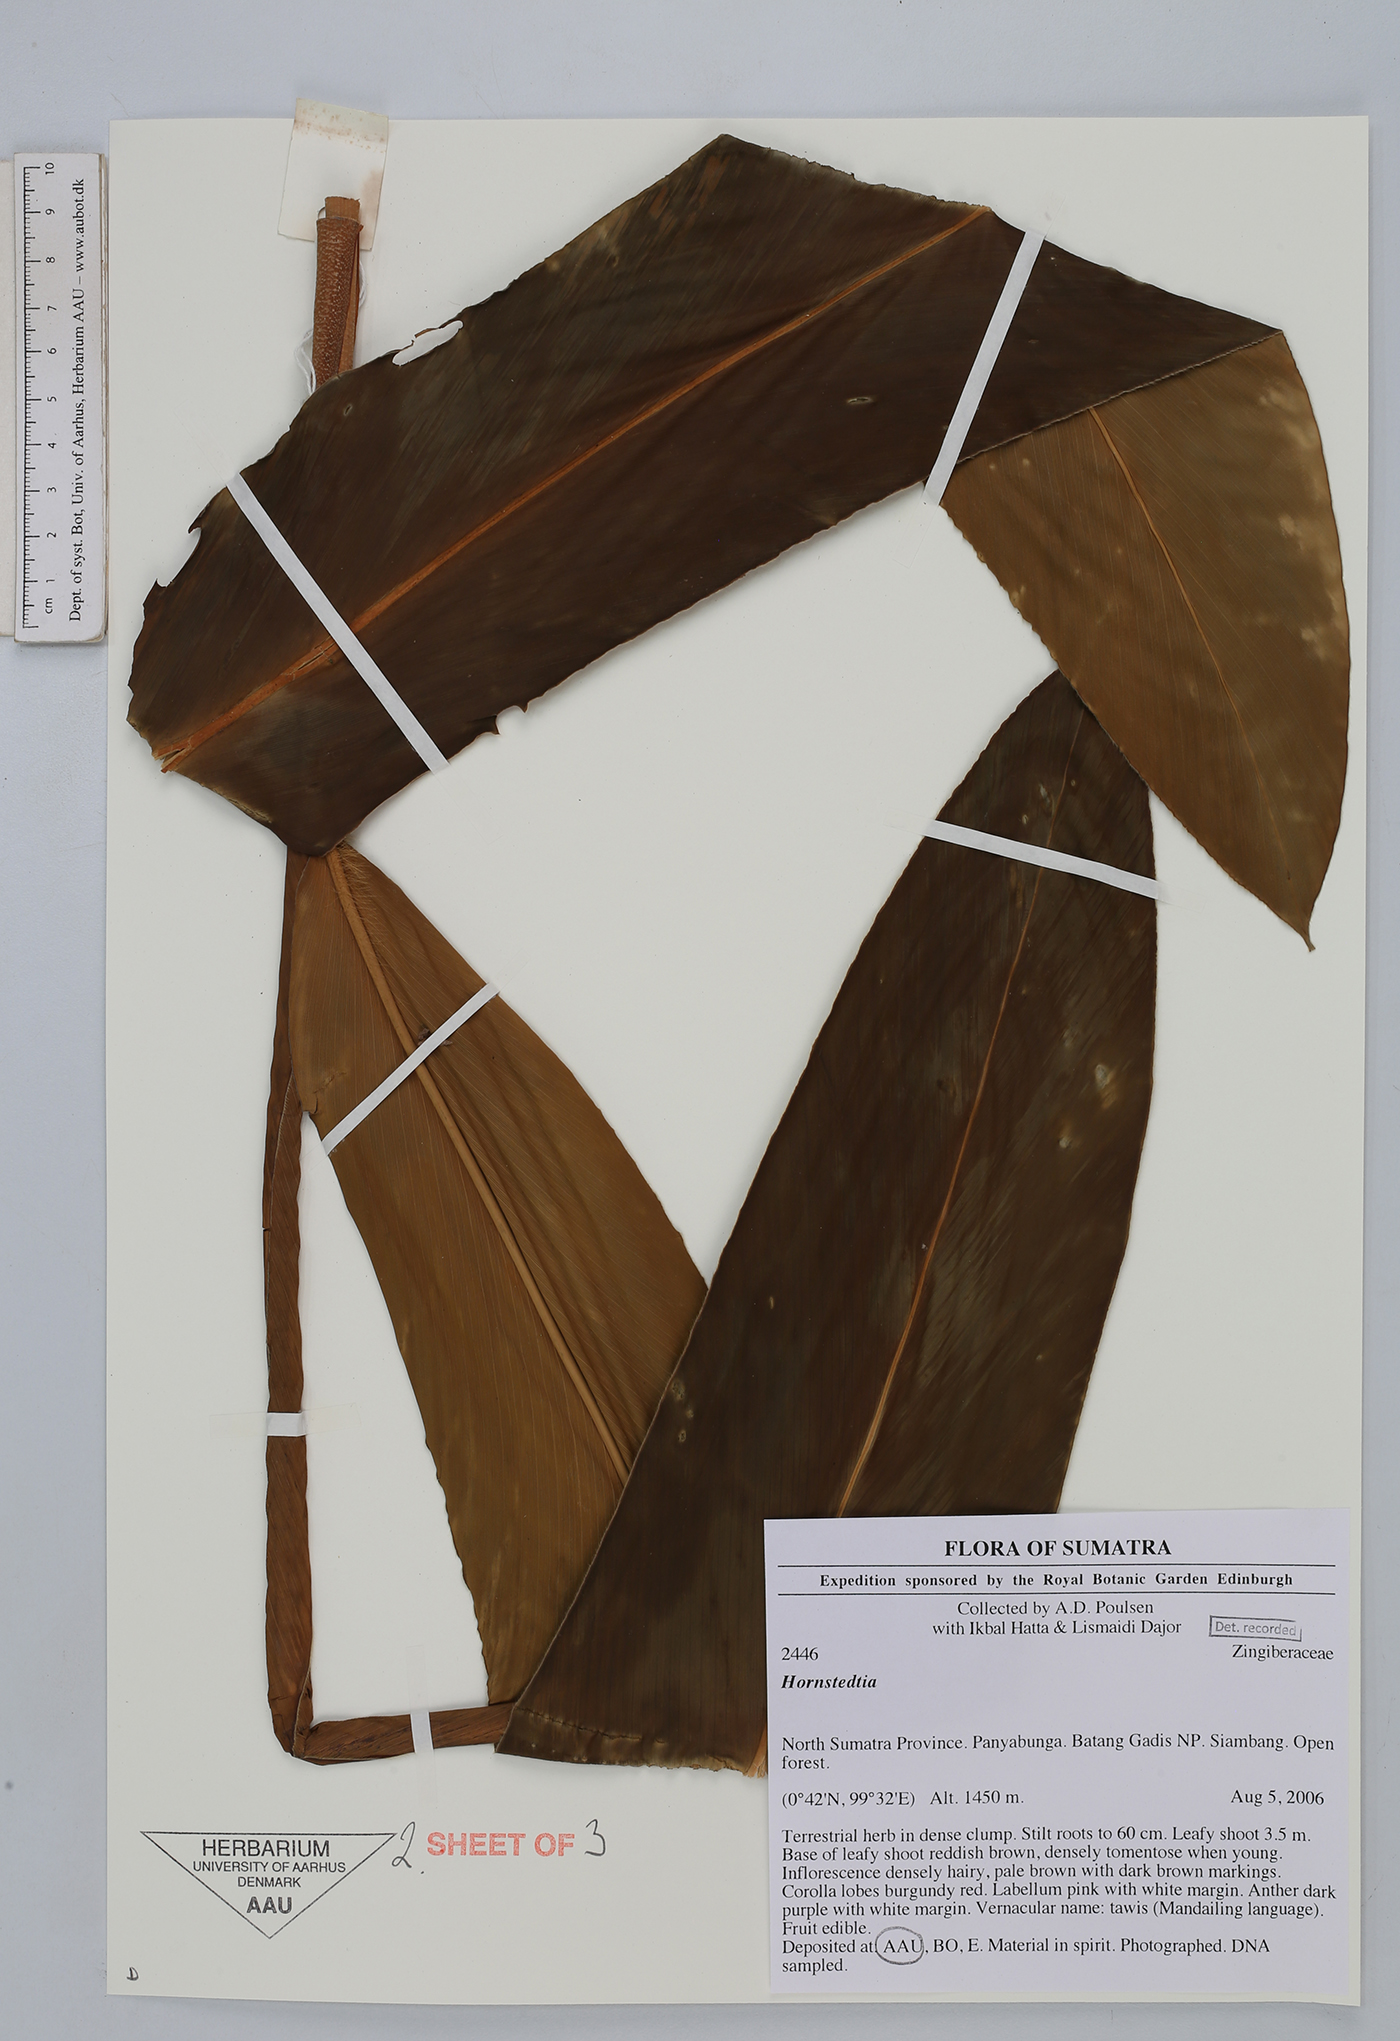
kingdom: Plantae
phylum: Tracheophyta
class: Liliopsida
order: Zingiberales
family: Zingiberaceae
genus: Hornstedtia
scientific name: Hornstedtia
